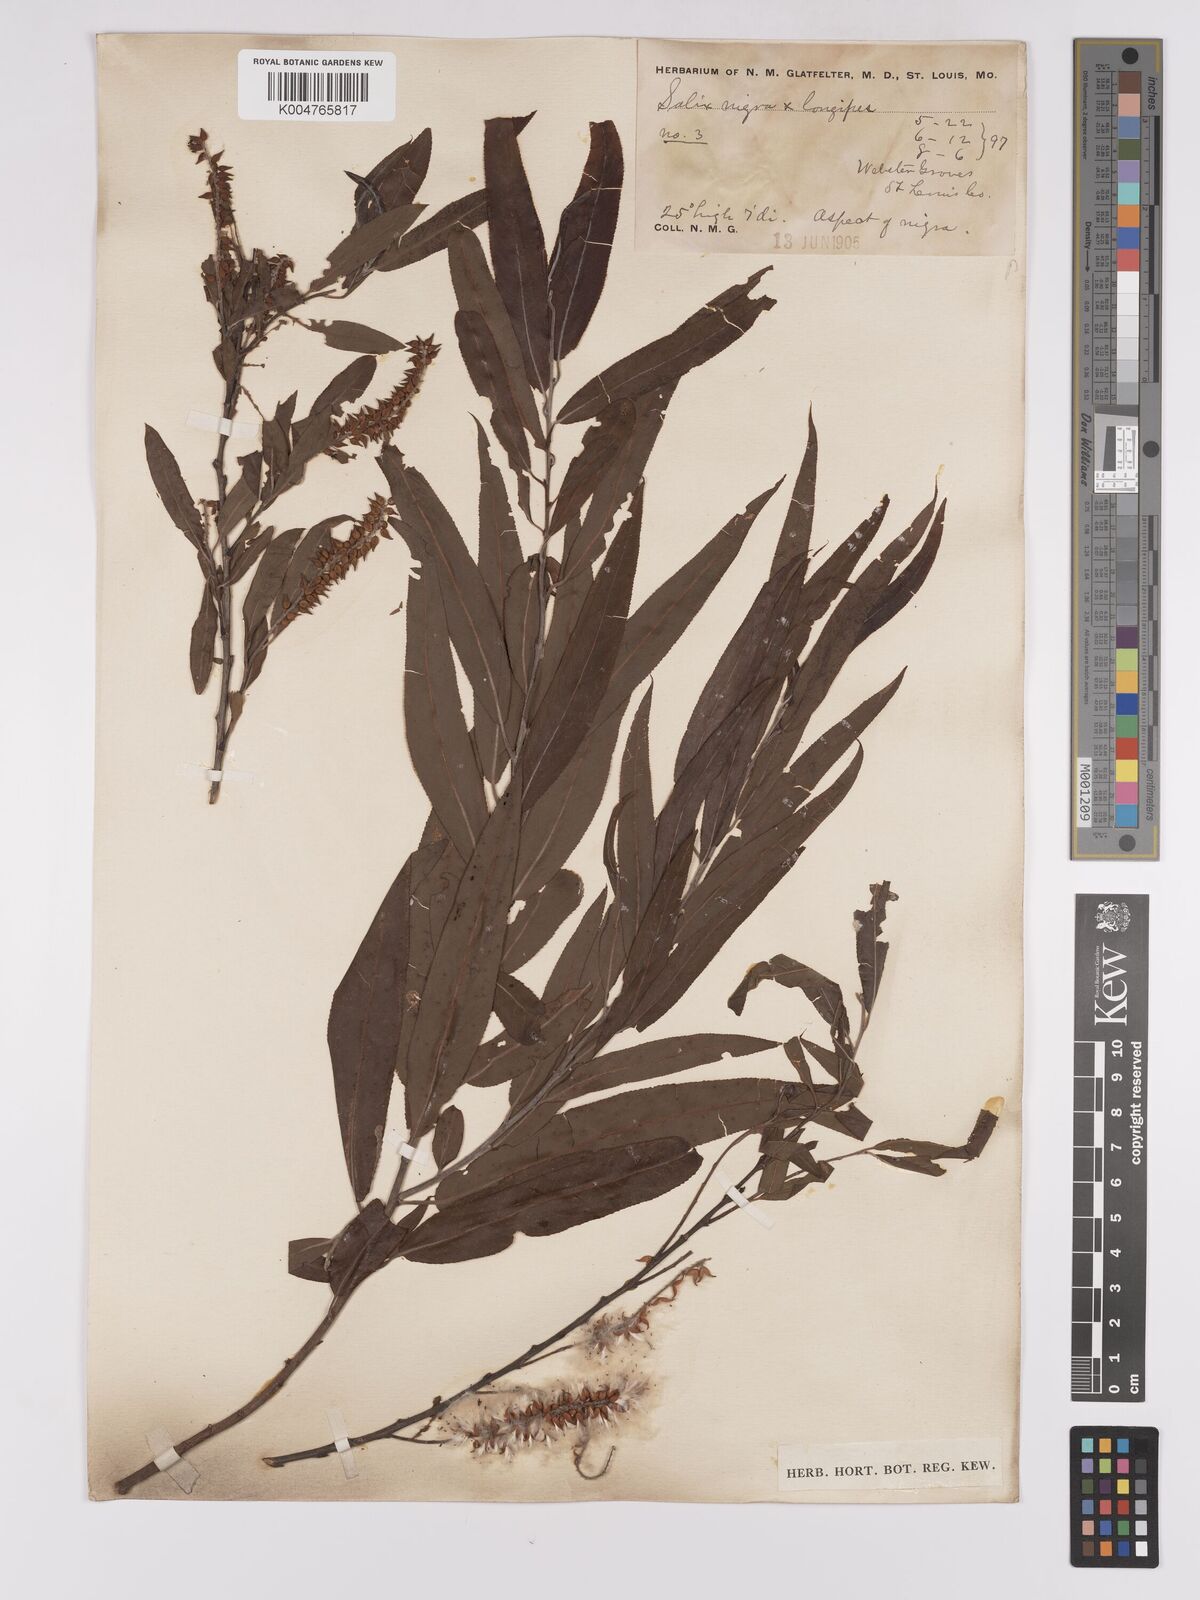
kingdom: Plantae
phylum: Tracheophyta
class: Magnoliopsida
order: Malpighiales
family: Salicaceae
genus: Salix
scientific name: Salix fruticulosa
